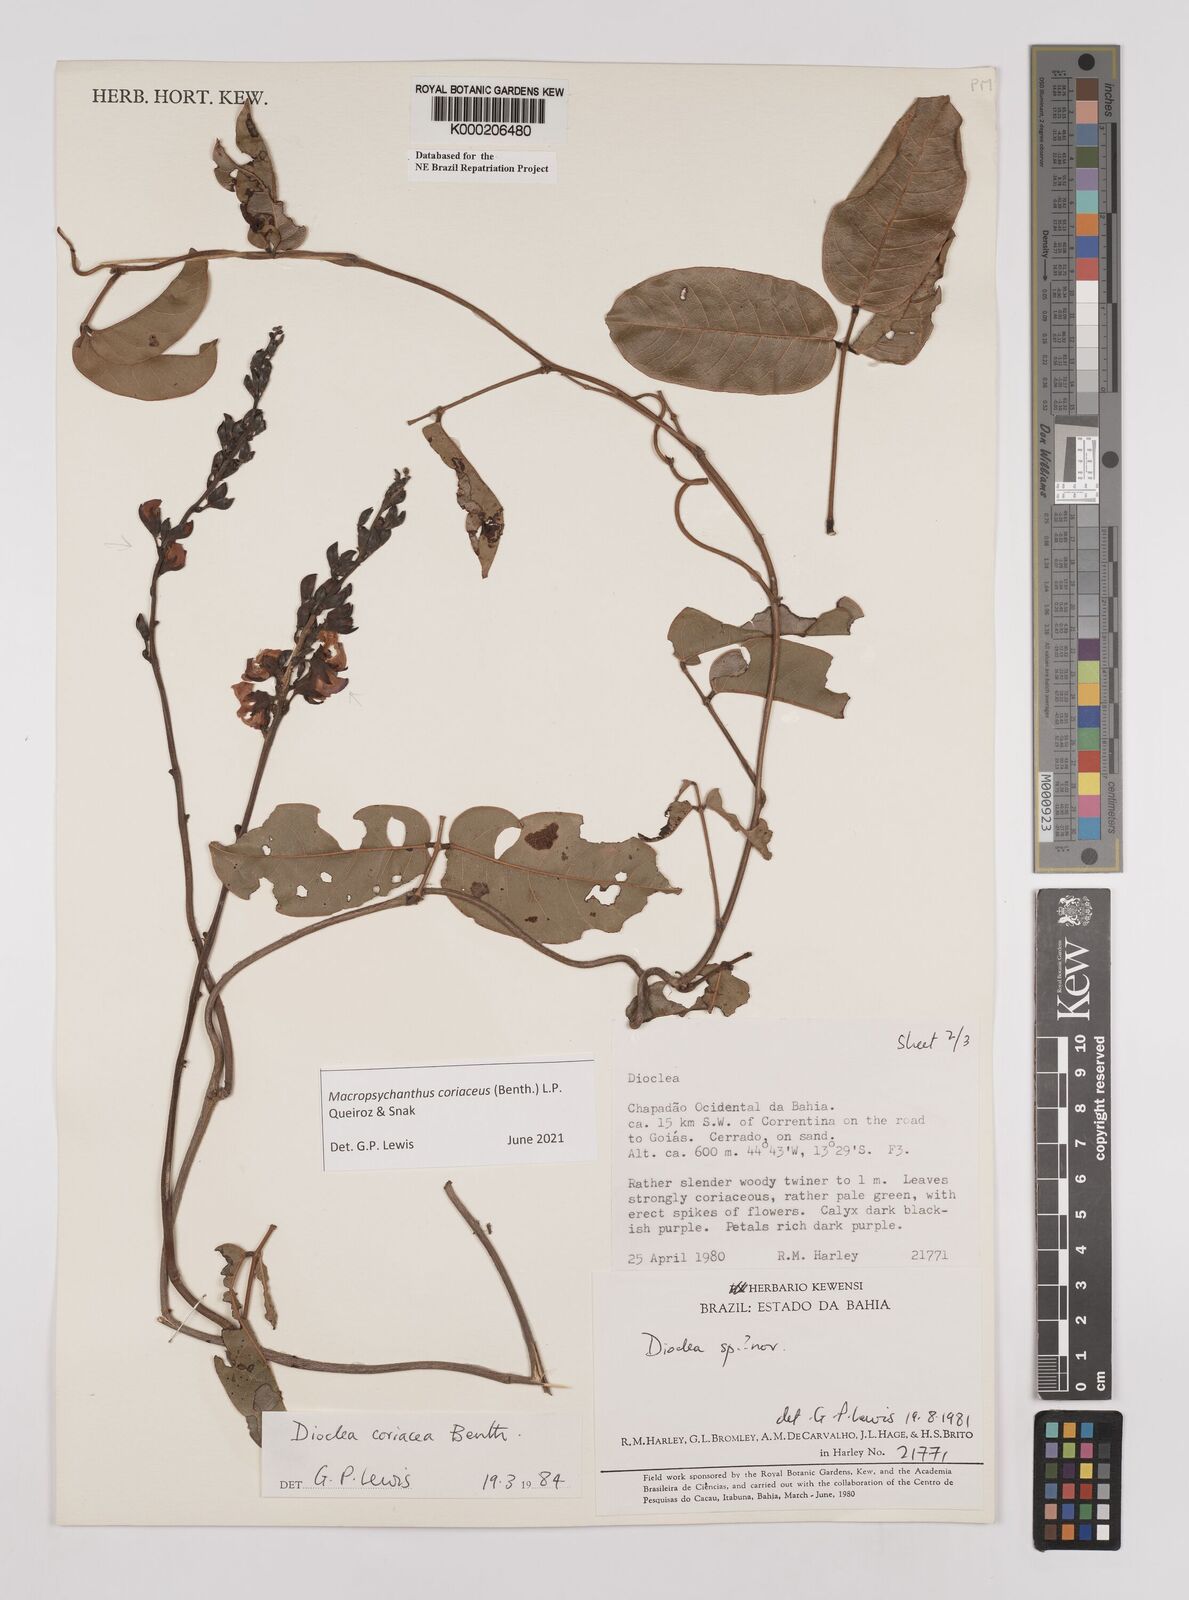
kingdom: Plantae
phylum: Tracheophyta
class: Magnoliopsida
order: Fabales
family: Fabaceae
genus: Macropsychanthus
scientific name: Macropsychanthus coriaceus
